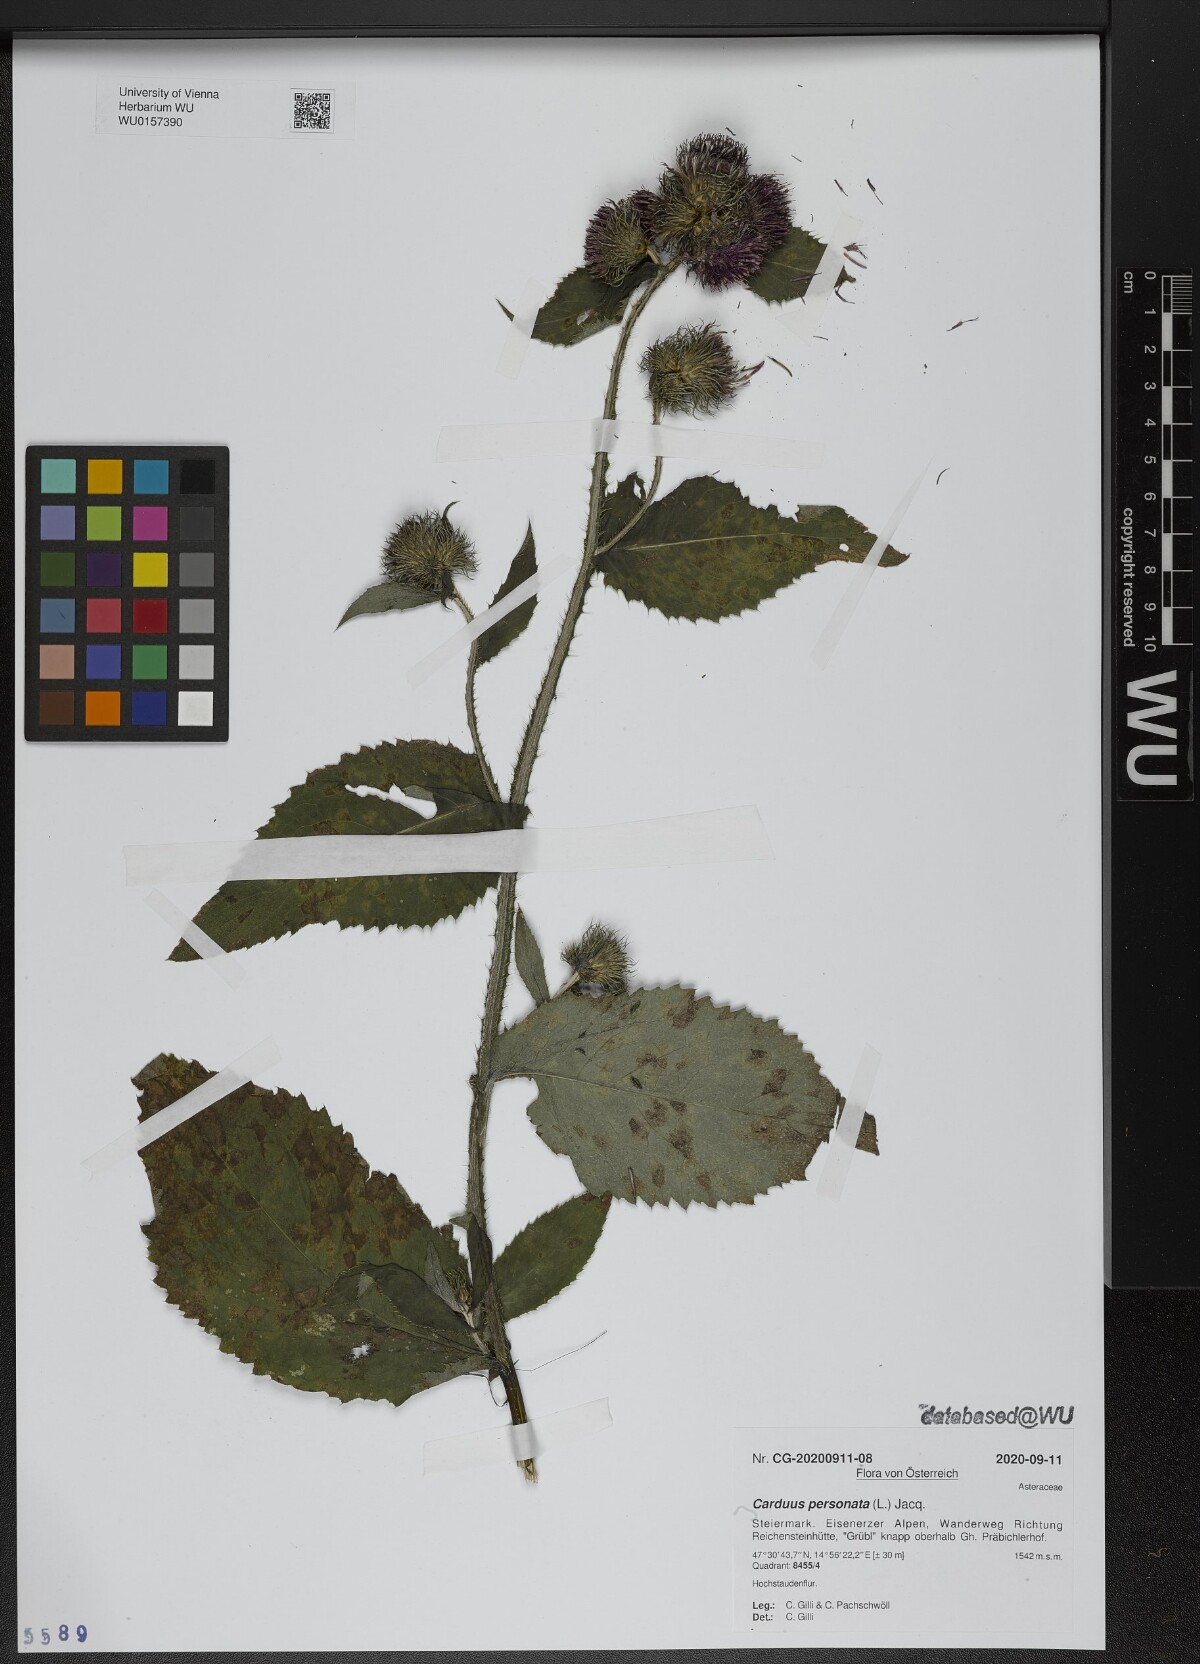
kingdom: Plantae
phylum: Tracheophyta
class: Magnoliopsida
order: Asterales
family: Asteraceae
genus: Carduus
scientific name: Carduus personata
